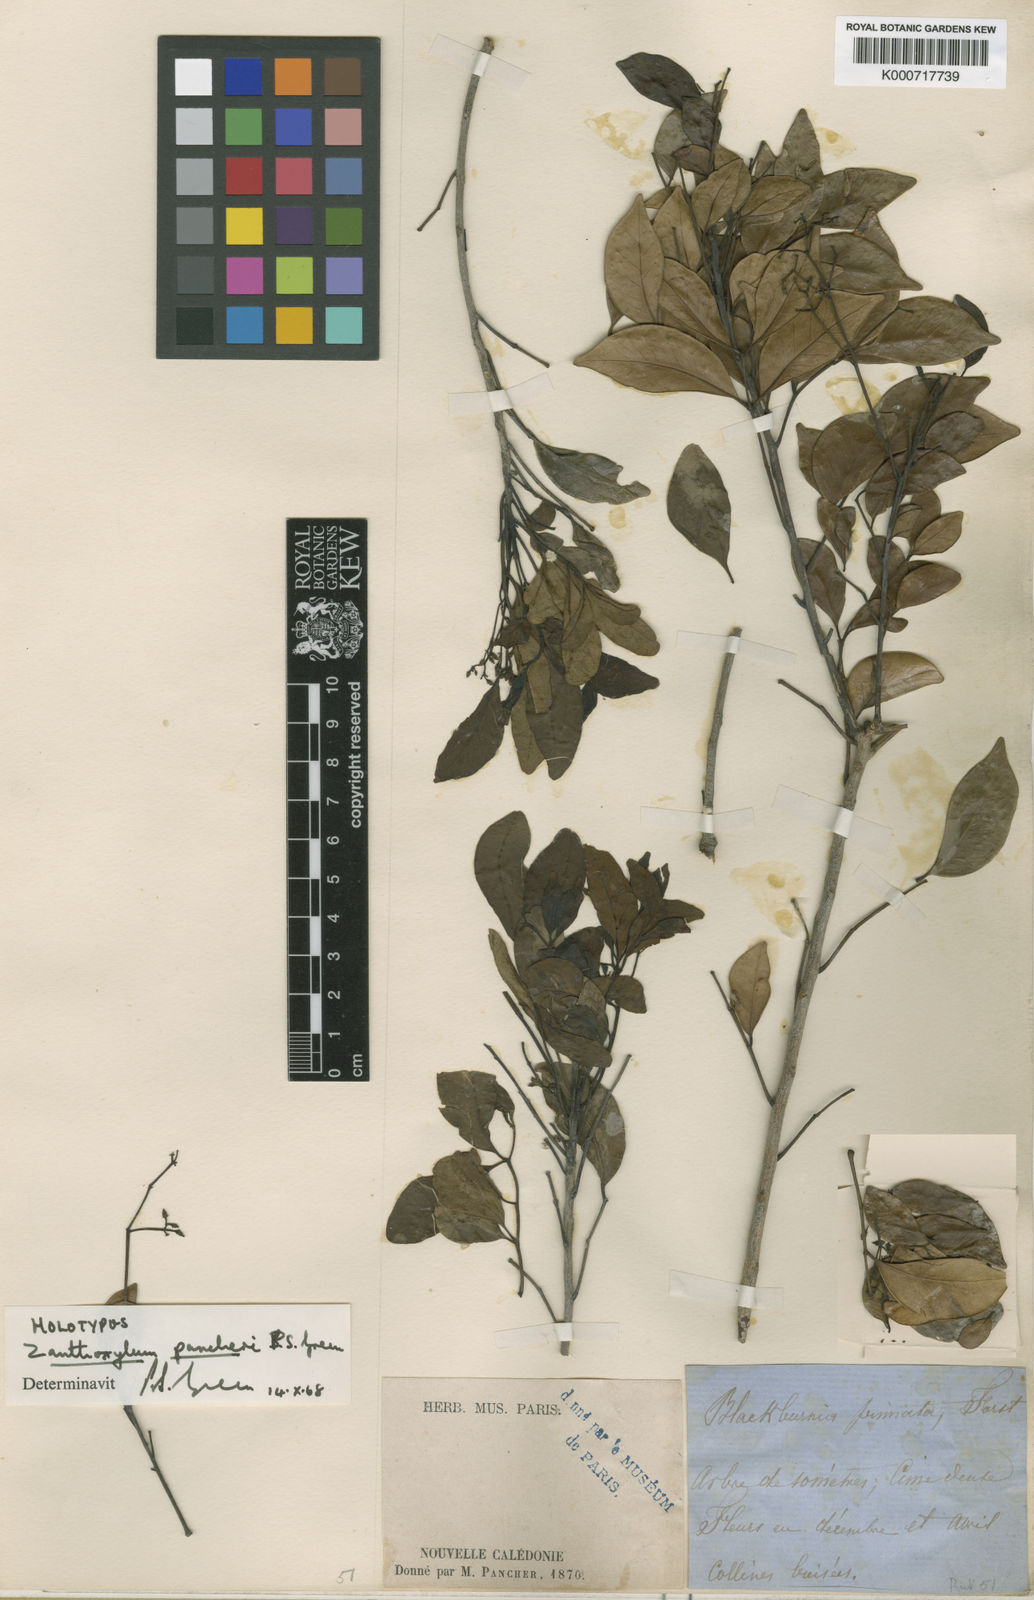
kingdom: Plantae
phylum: Tracheophyta
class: Magnoliopsida
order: Sapindales
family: Rutaceae
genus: Zanthoxylum
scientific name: Zanthoxylum pancheri
